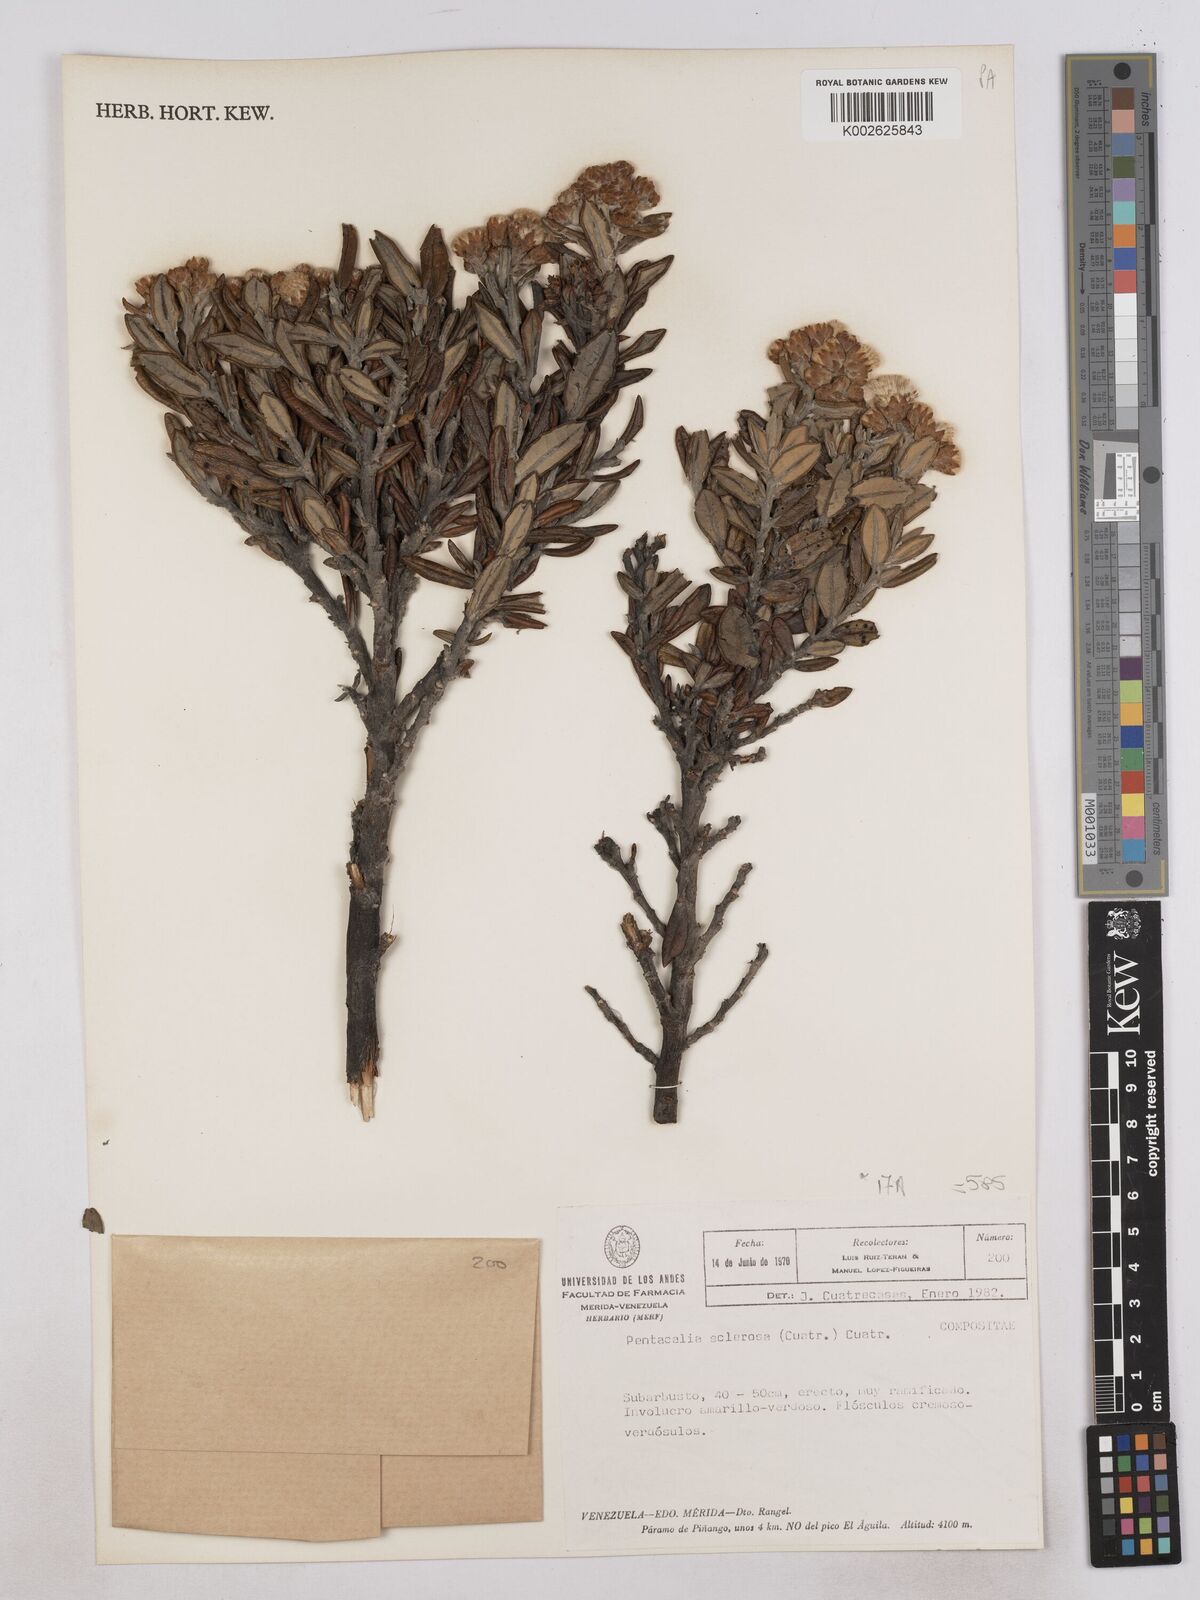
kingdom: Plantae
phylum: Tracheophyta
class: Magnoliopsida
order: Asterales
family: Asteraceae
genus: Monticalia
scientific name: Monticalia sclerosa
